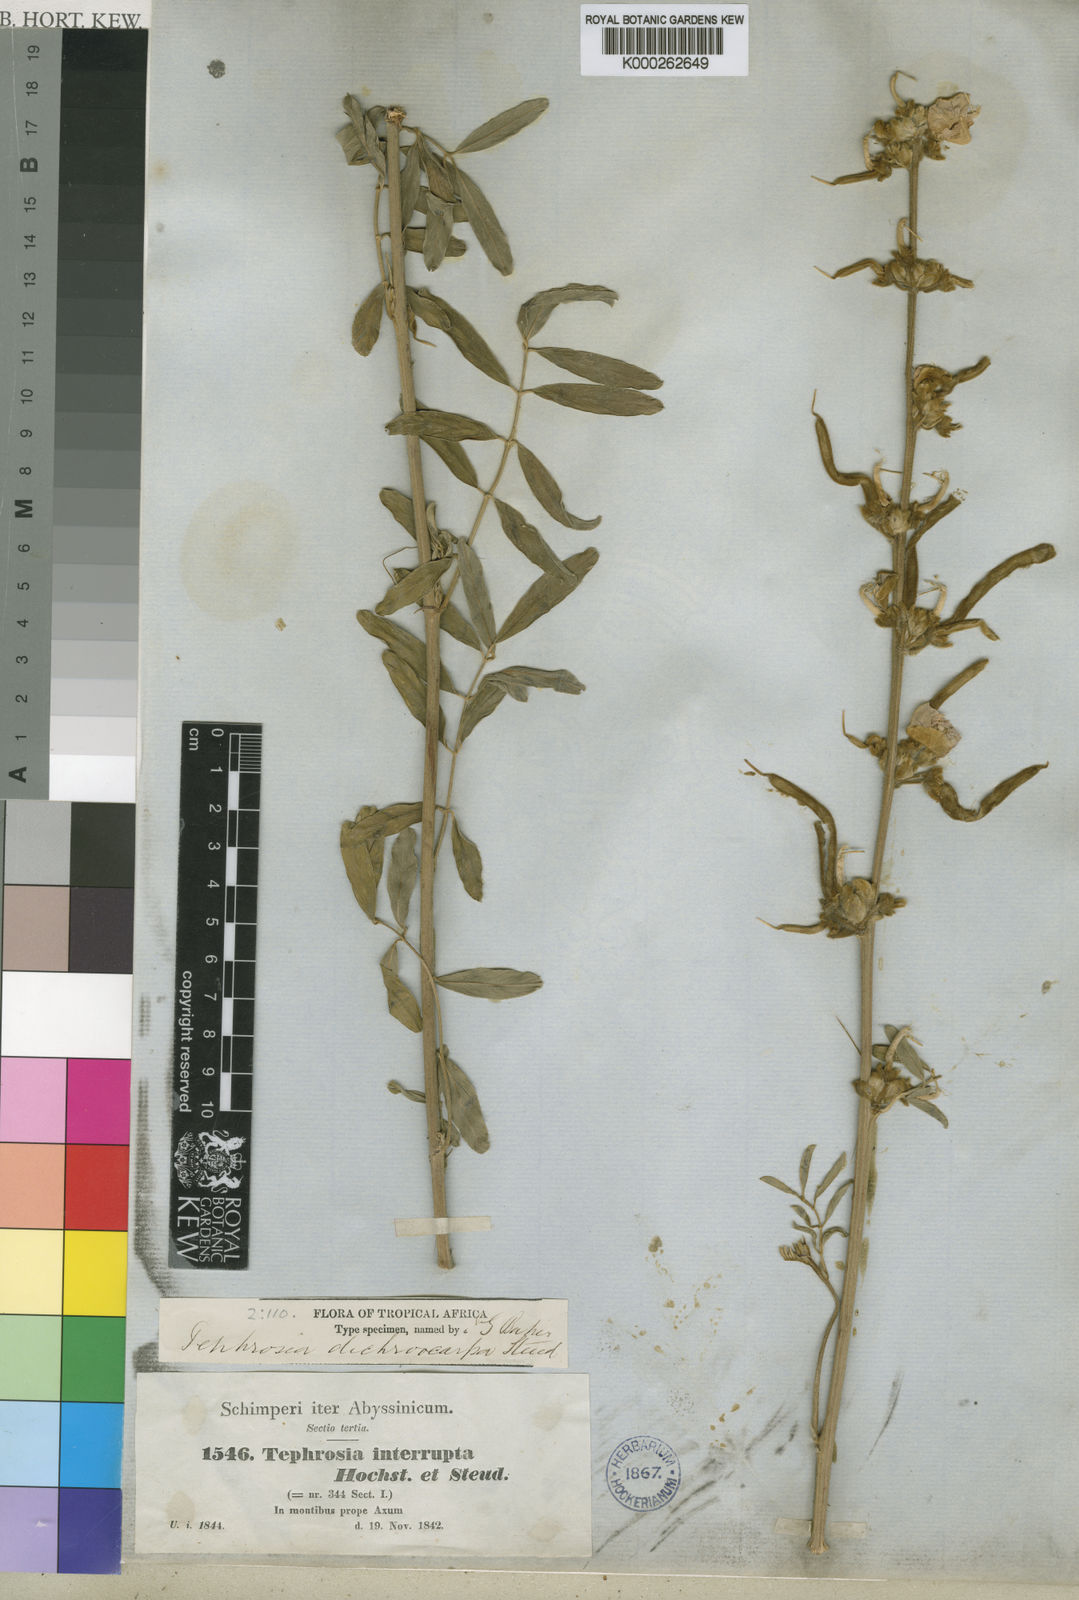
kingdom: Plantae
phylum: Tracheophyta
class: Magnoliopsida
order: Fabales
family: Fabaceae
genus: Tephrosia
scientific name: Tephrosia
